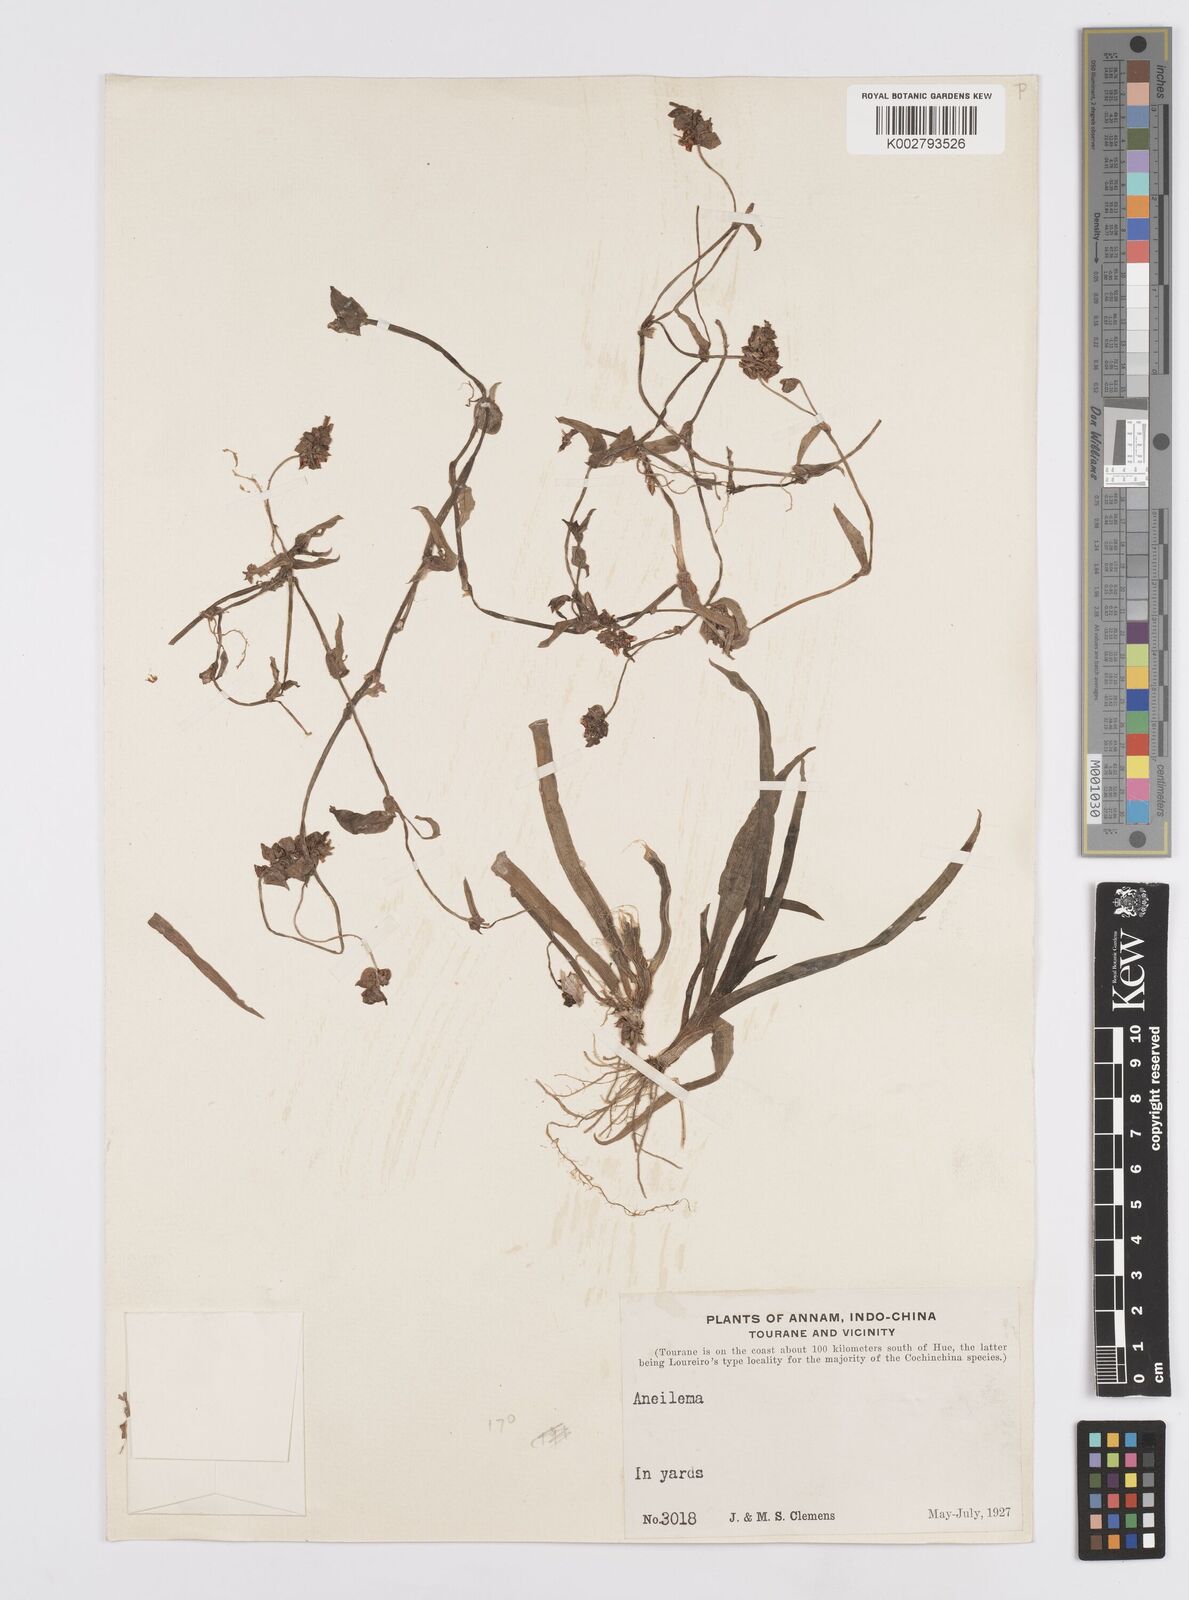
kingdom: Plantae
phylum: Tracheophyta
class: Liliopsida
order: Commelinales
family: Commelinaceae
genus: Murdannia
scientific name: Murdannia
